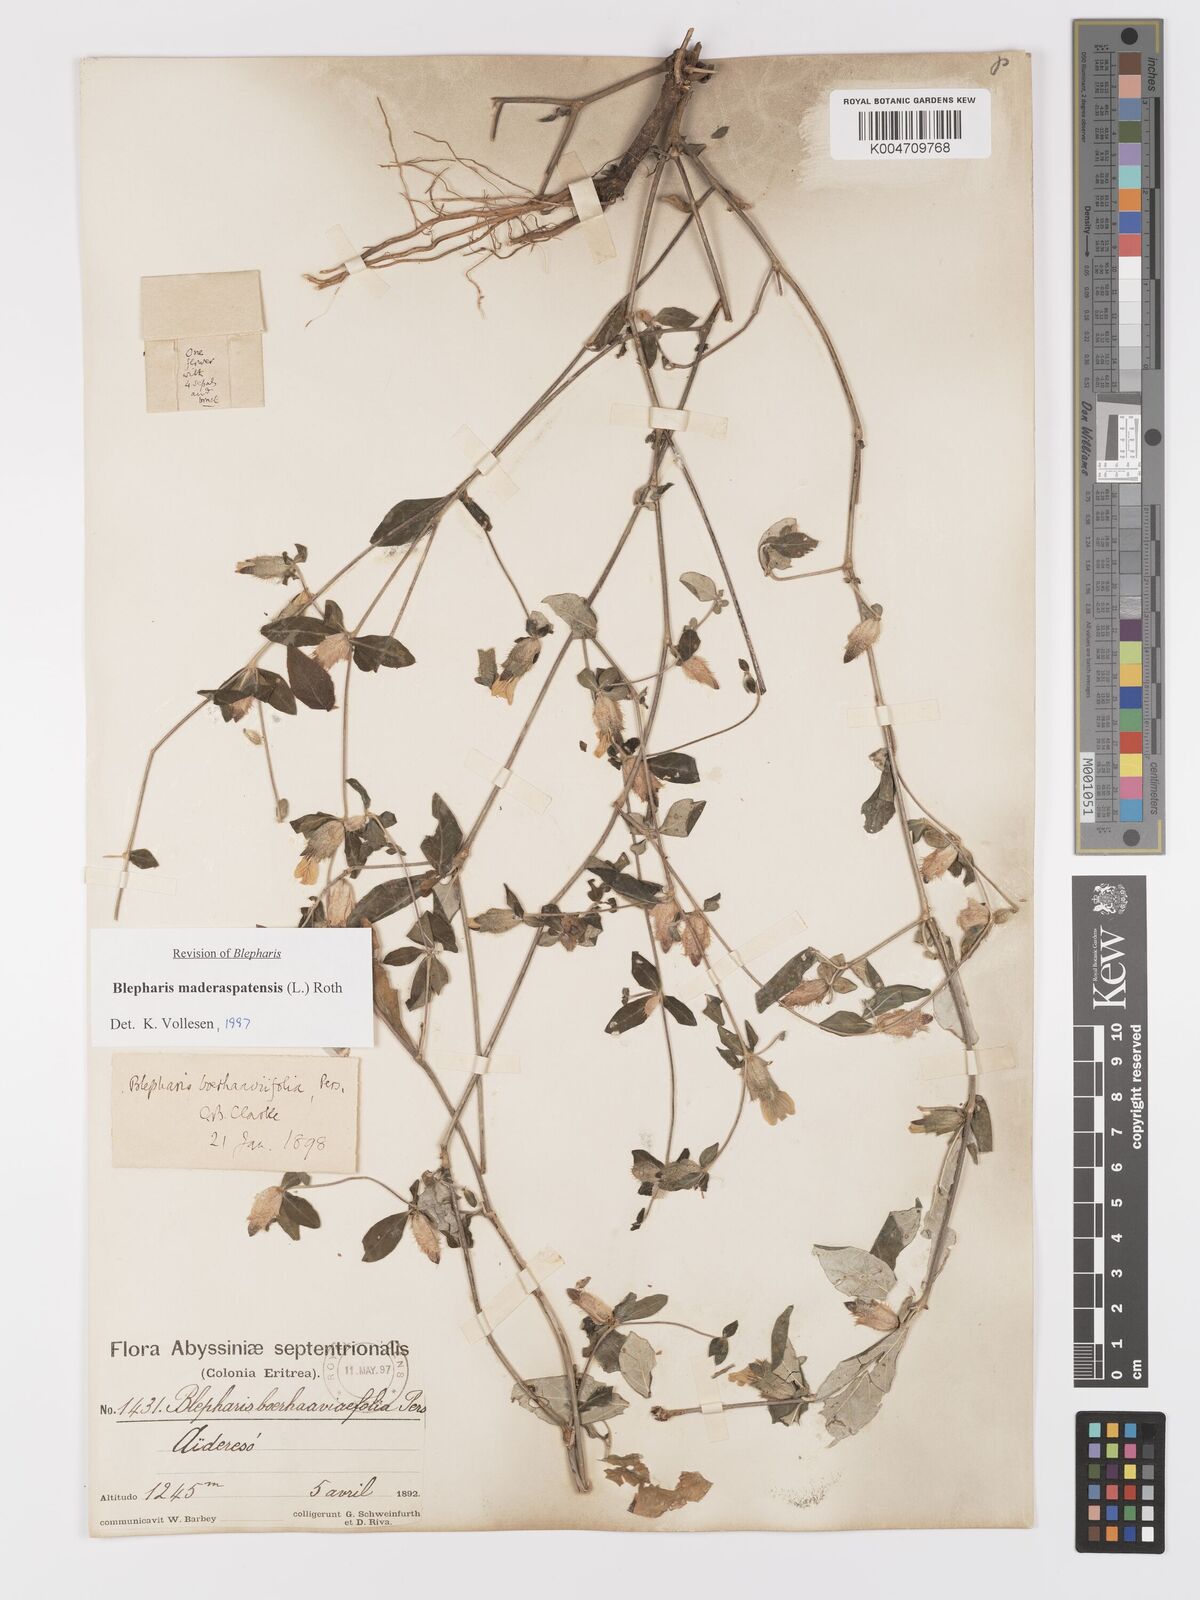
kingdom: Plantae
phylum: Tracheophyta
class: Magnoliopsida
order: Lamiales
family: Acanthaceae
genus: Blepharis
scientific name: Blepharis maderaspatensis
